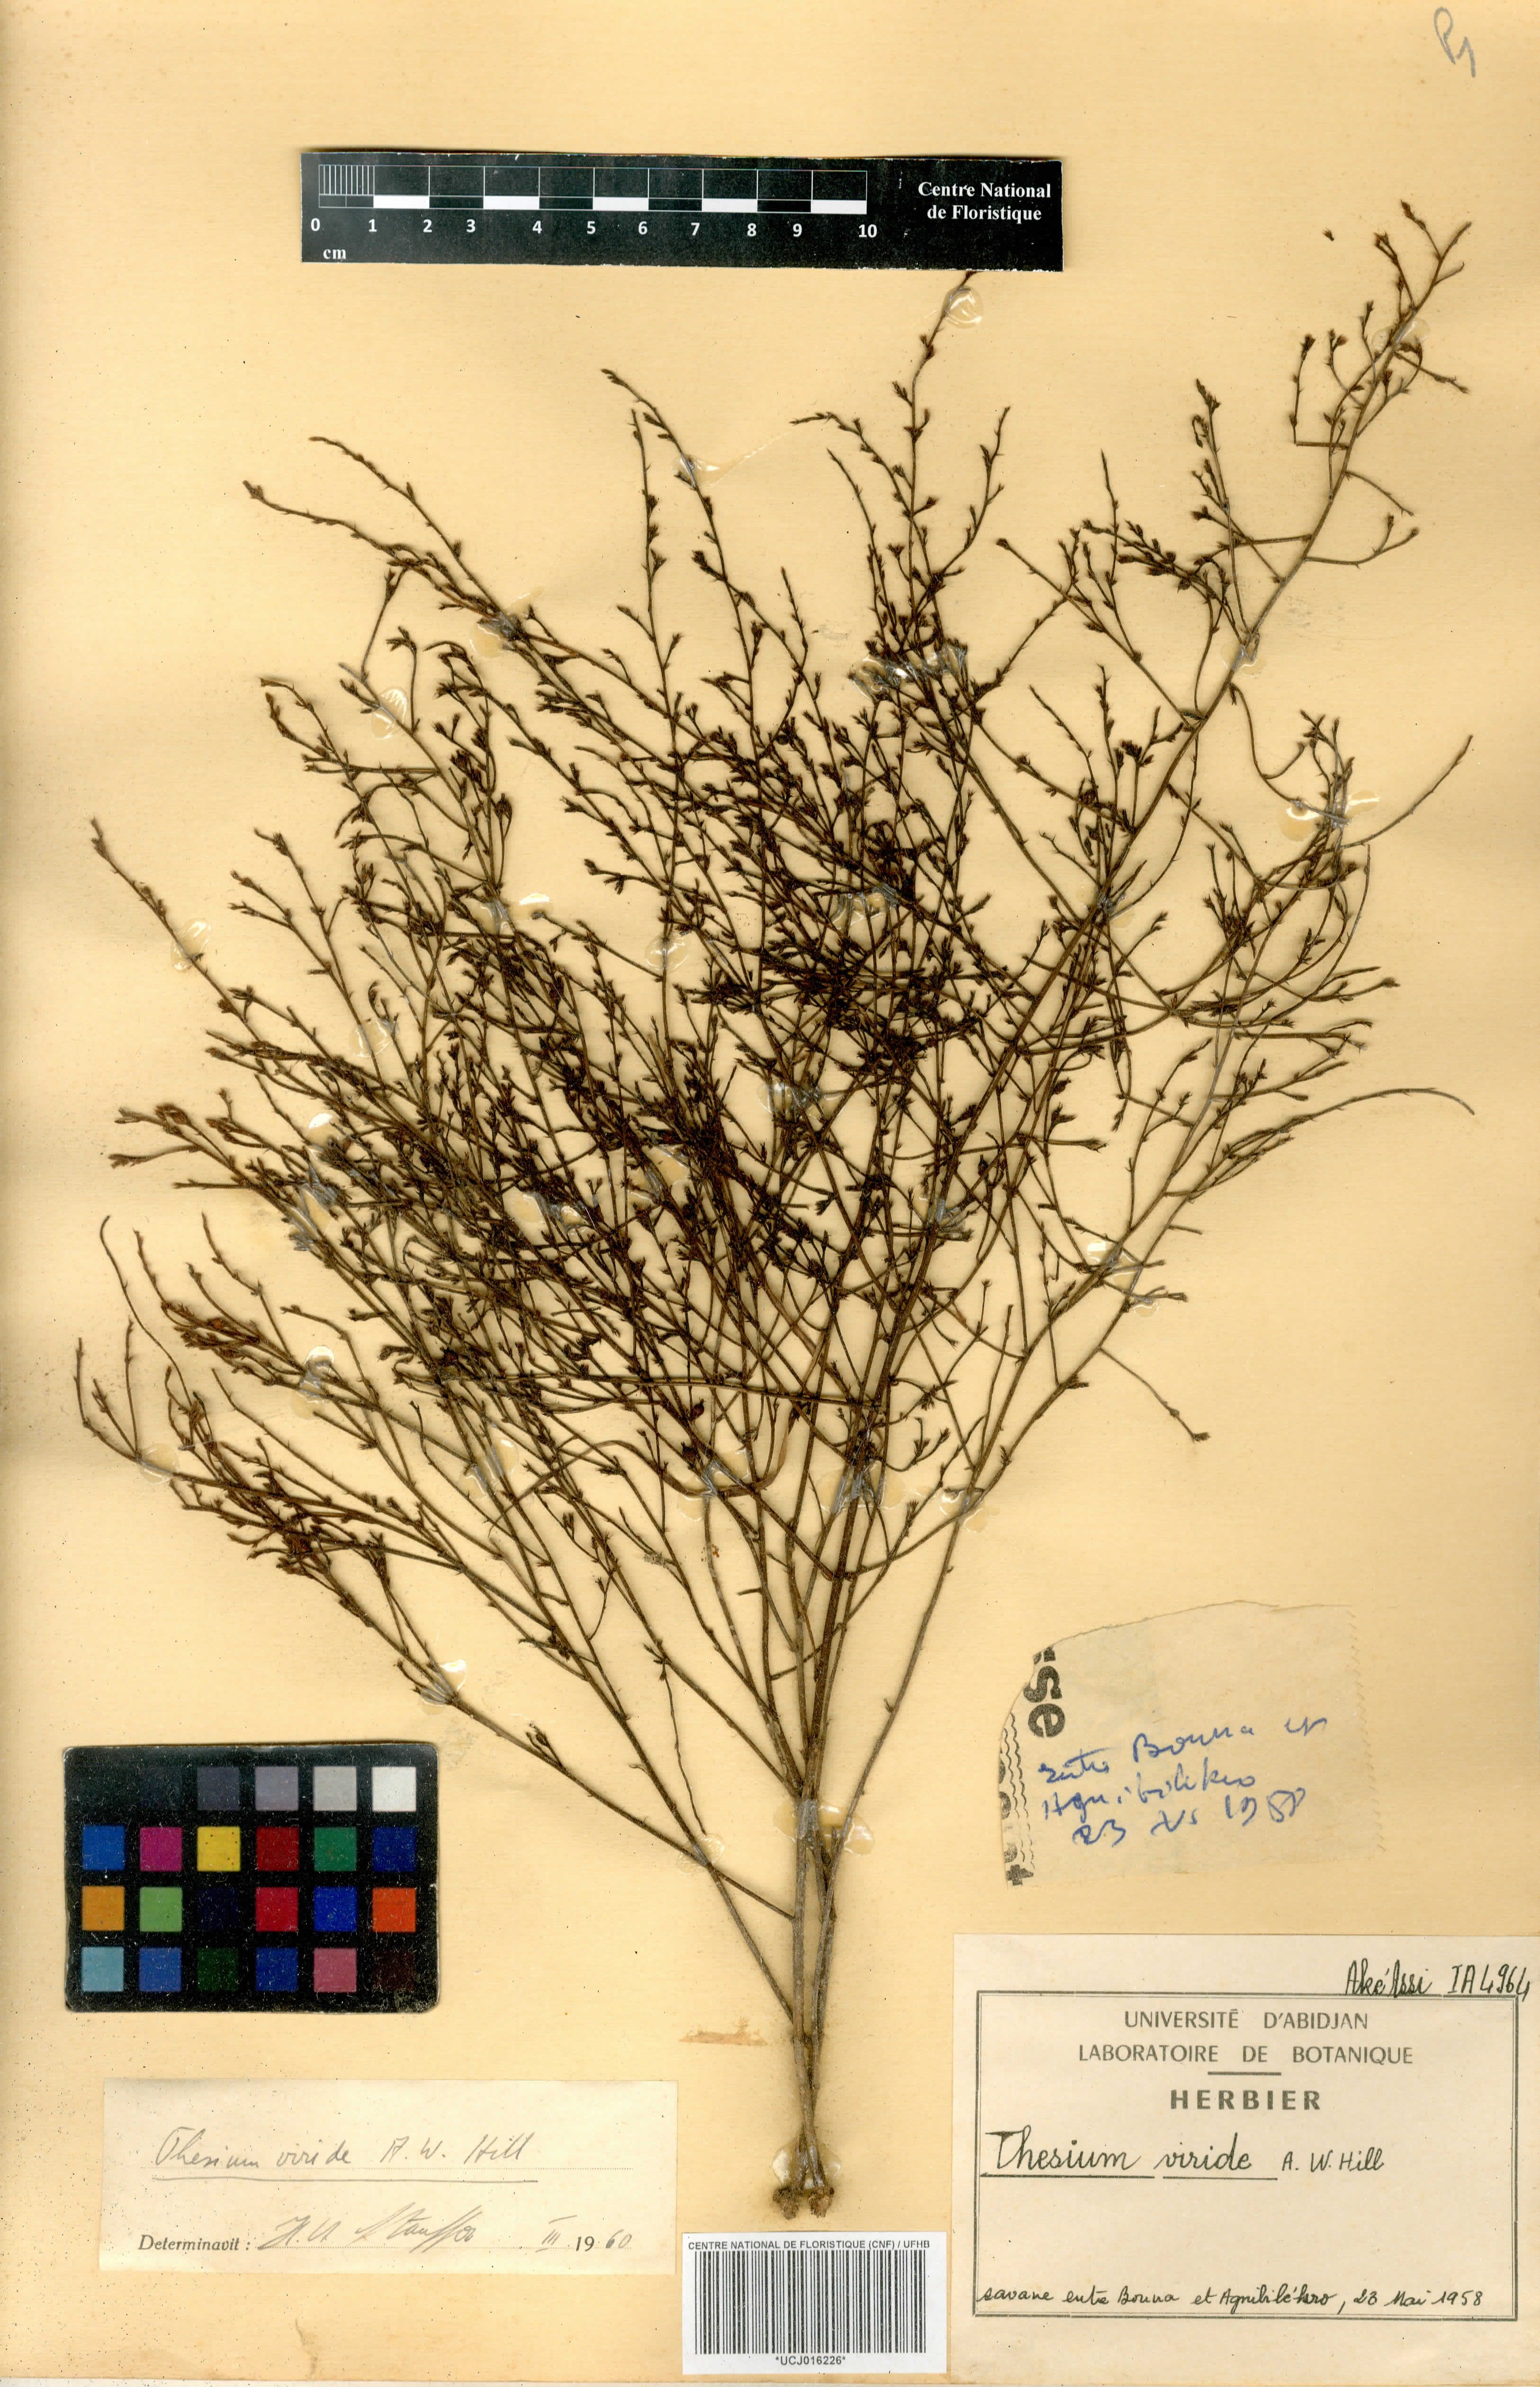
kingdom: Plantae
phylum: Tracheophyta
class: Magnoliopsida
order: Santalales
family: Thesiaceae
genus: Thesium
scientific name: Thesium viride
